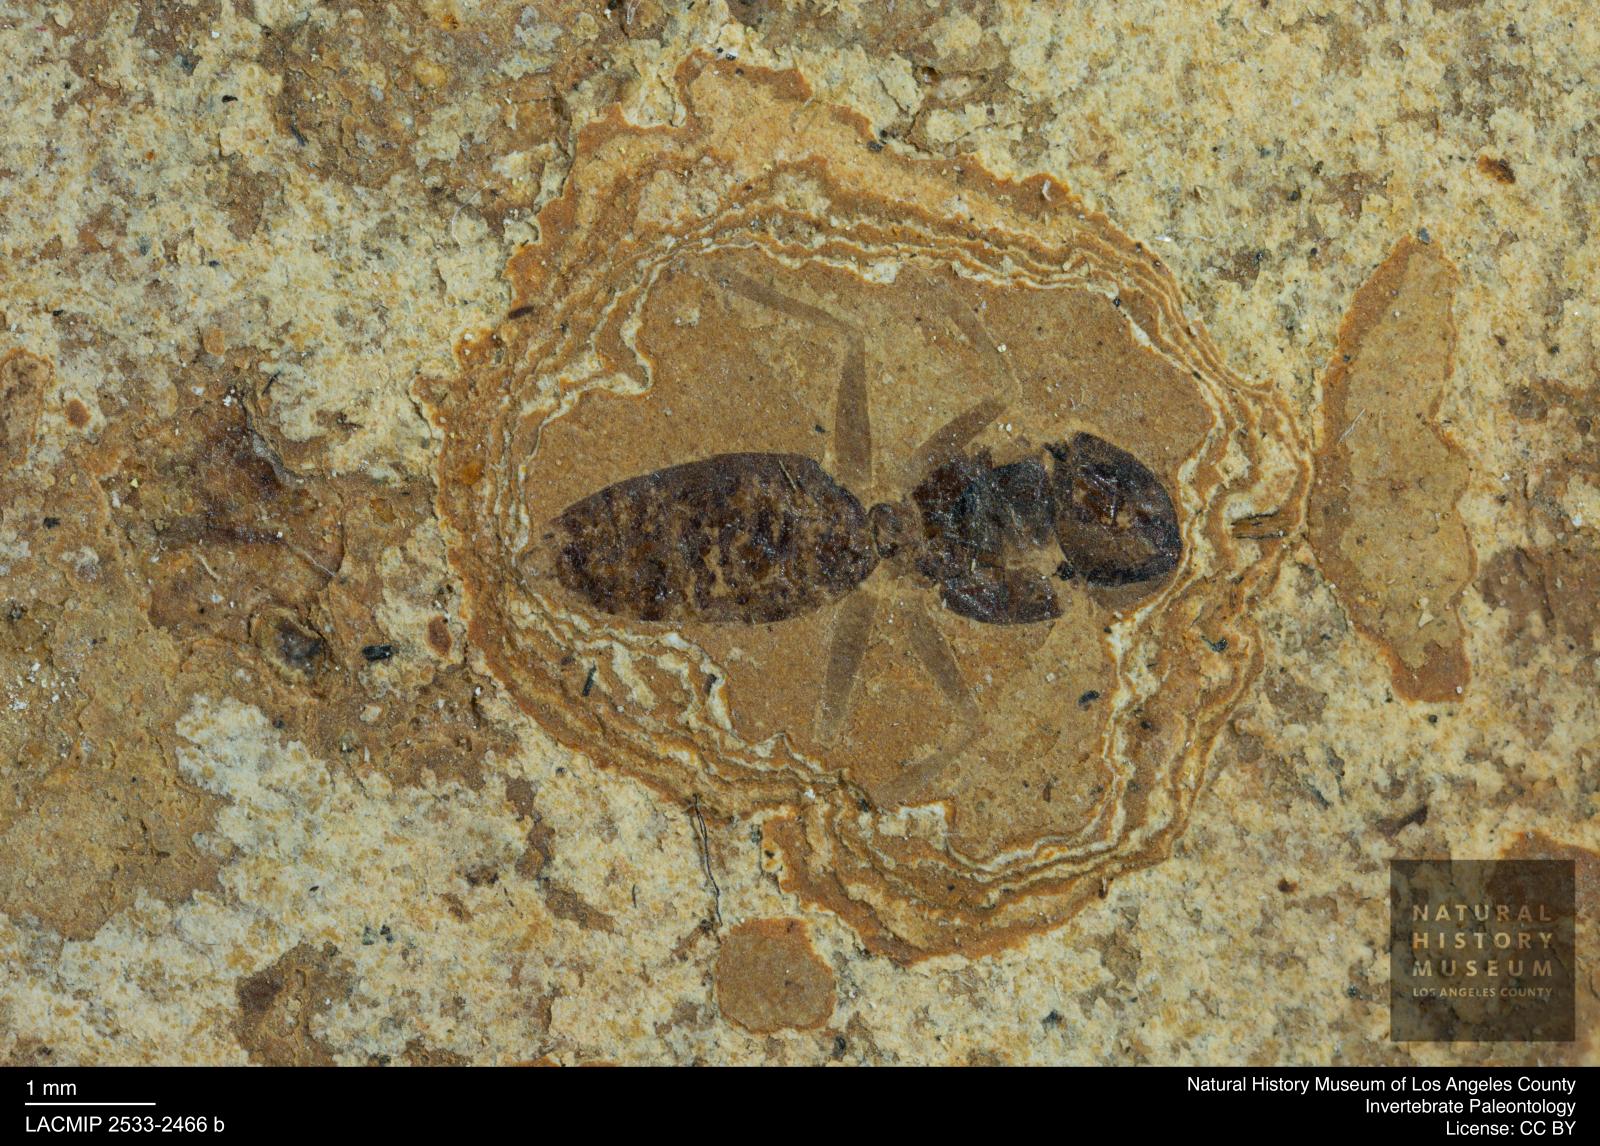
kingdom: Animalia
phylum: Arthropoda
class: Insecta
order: Hymenoptera
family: Formicidae
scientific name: Formicidae
